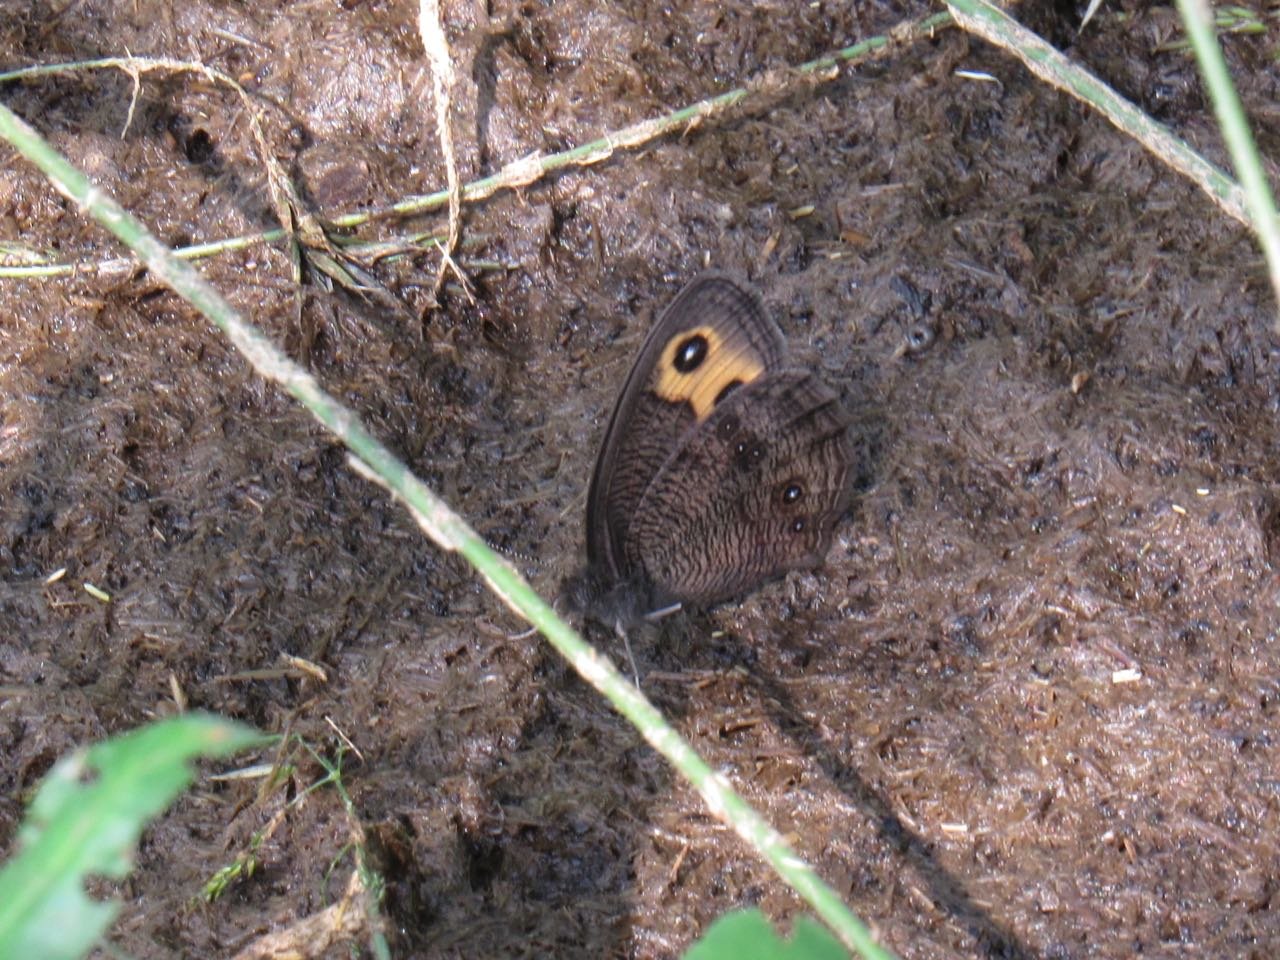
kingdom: Animalia
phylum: Arthropoda
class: Insecta
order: Lepidoptera
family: Nymphalidae
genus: Cercyonis
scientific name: Cercyonis pegala
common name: Common Wood-Nymph
